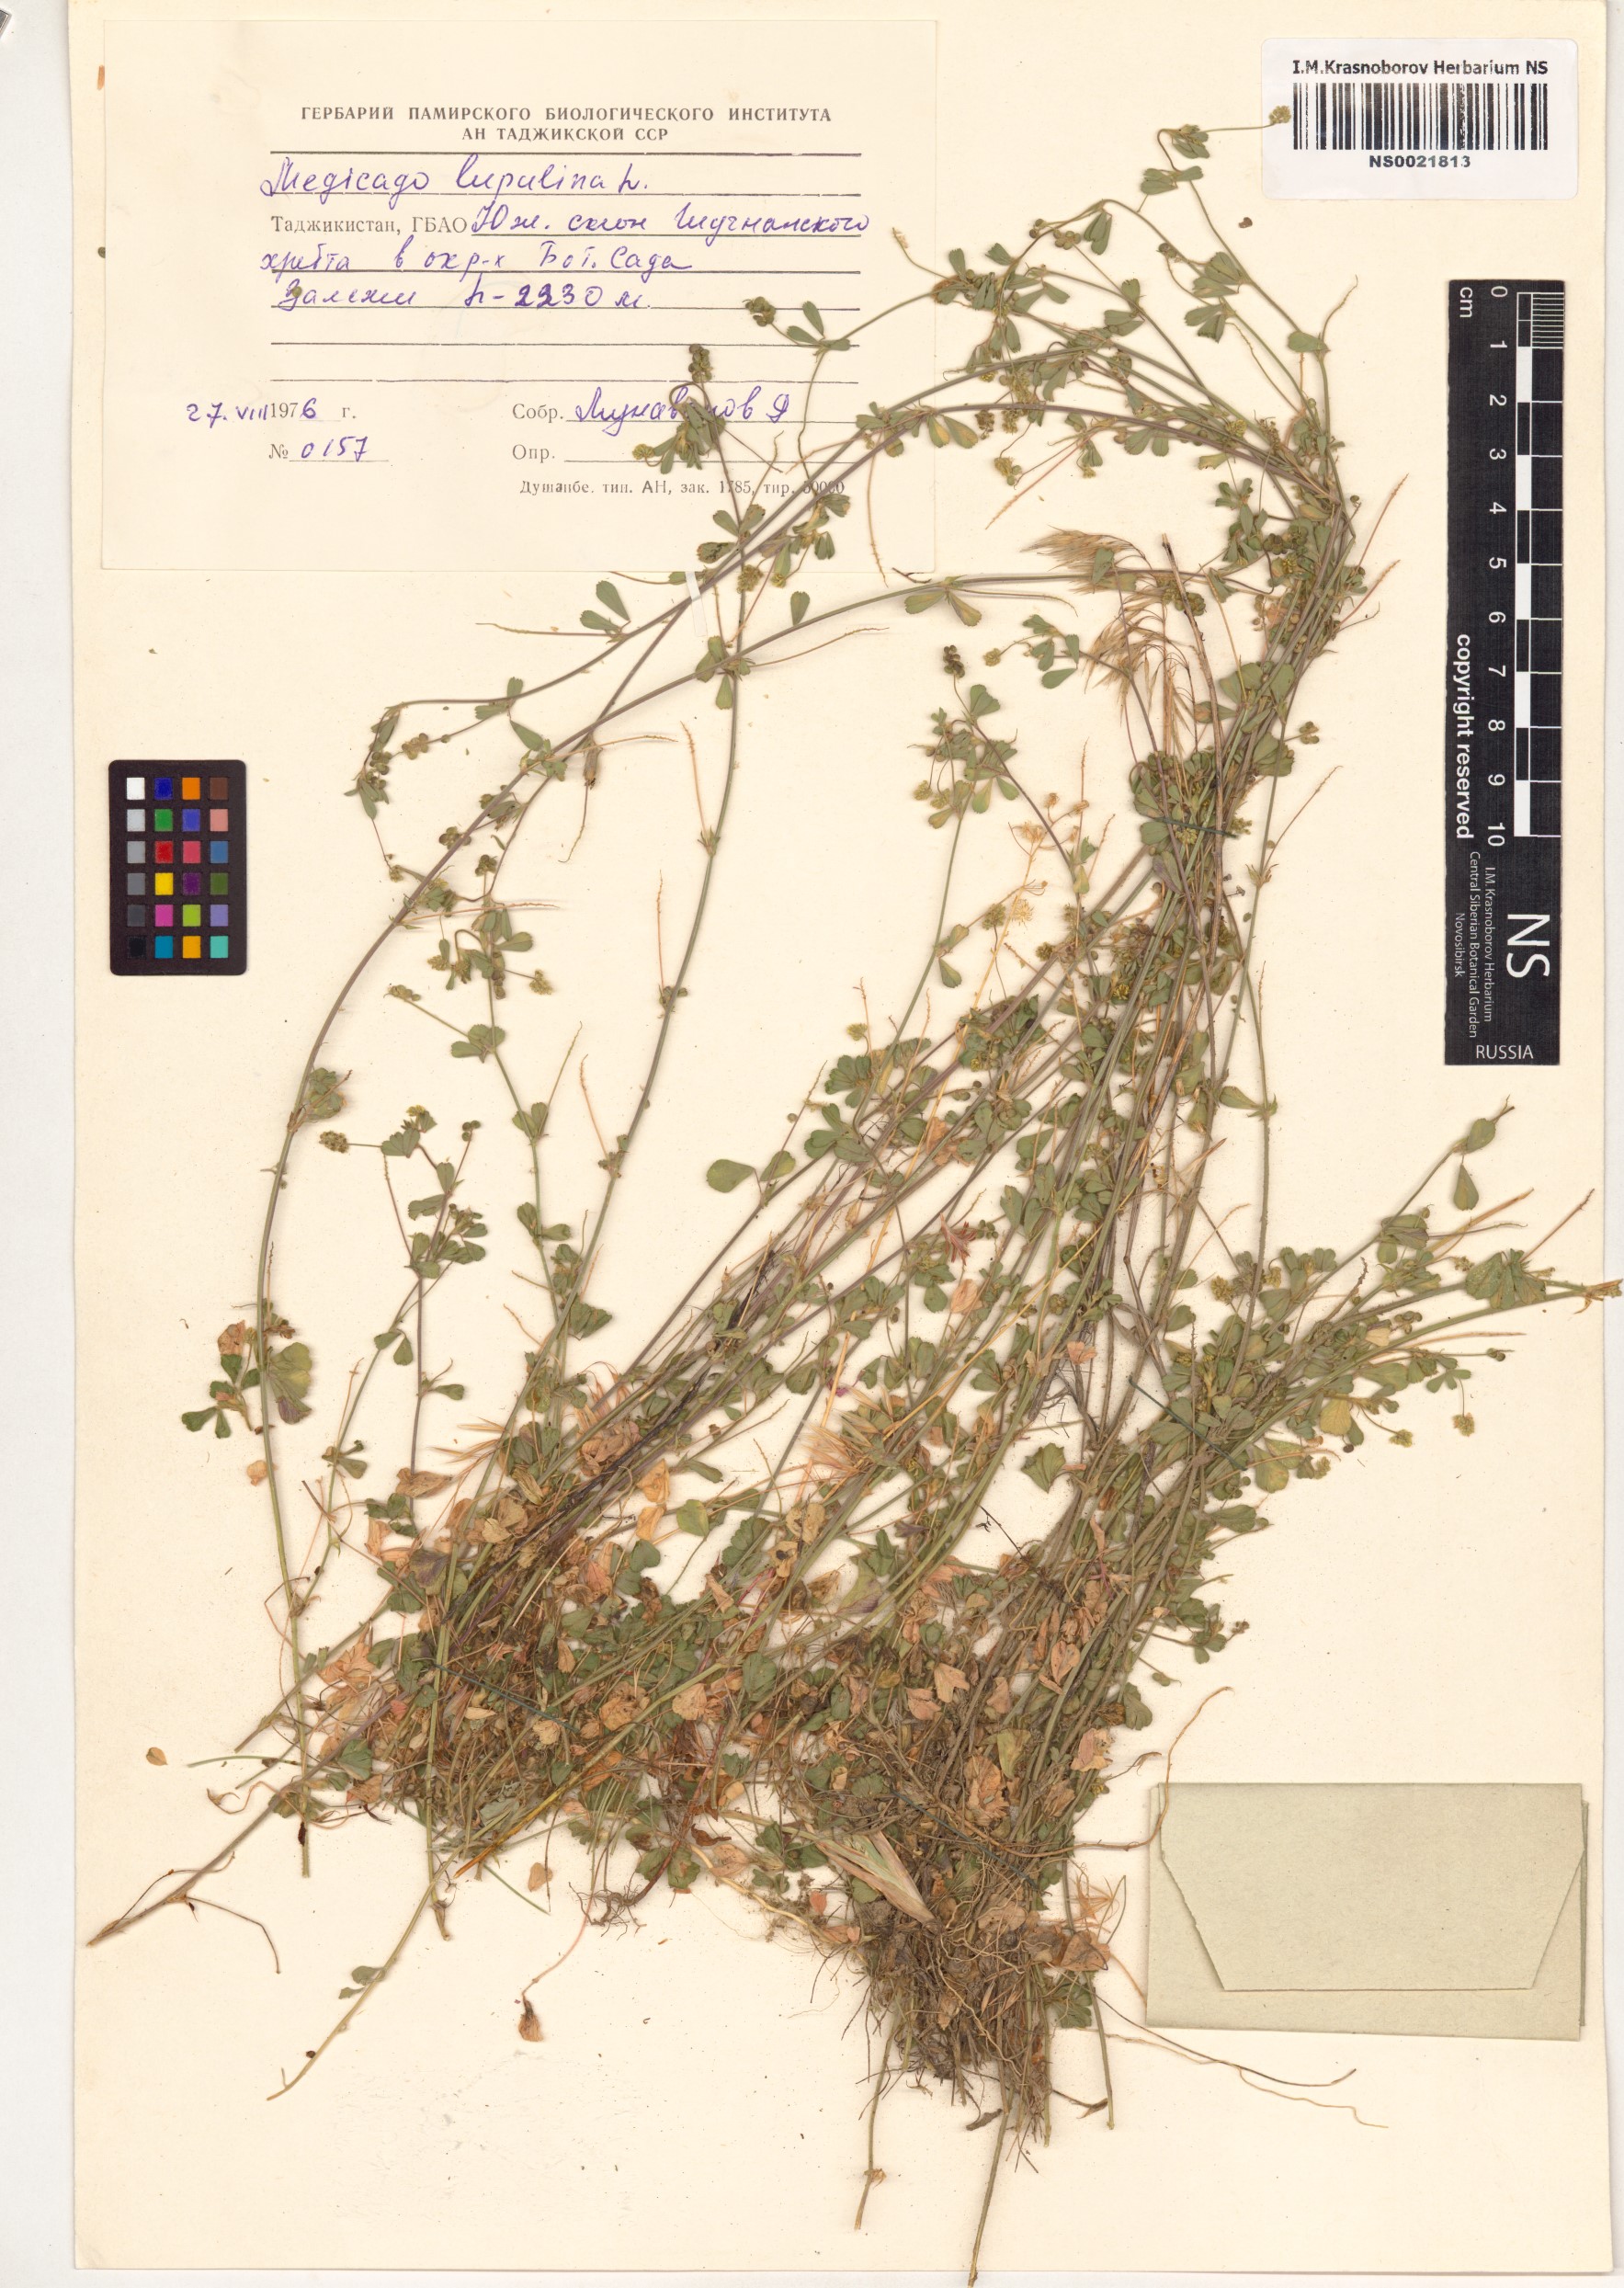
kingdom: Plantae
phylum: Tracheophyta
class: Magnoliopsida
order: Fabales
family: Fabaceae
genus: Medicago
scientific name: Medicago lupulina
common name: Black medick
